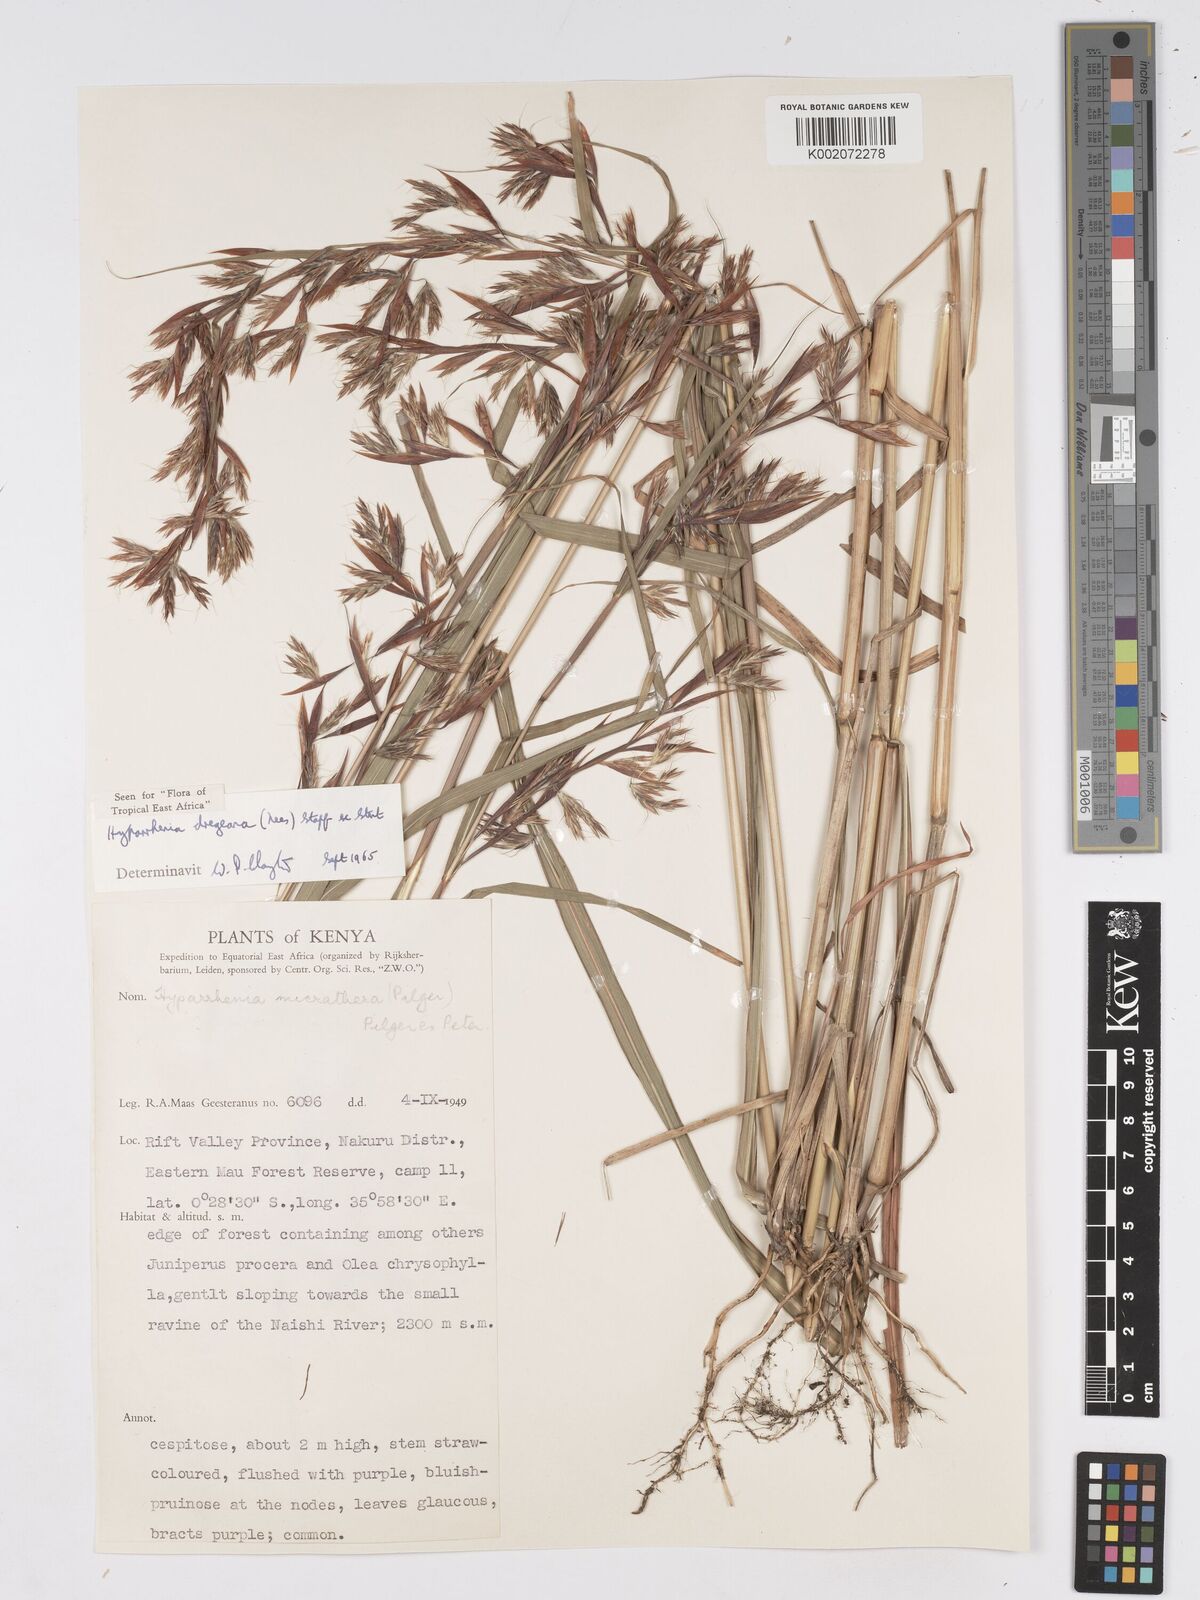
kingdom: Plantae
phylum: Tracheophyta
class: Liliopsida
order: Poales
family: Poaceae
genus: Hyparrhenia
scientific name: Hyparrhenia dregeana
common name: Silky thatching grass
